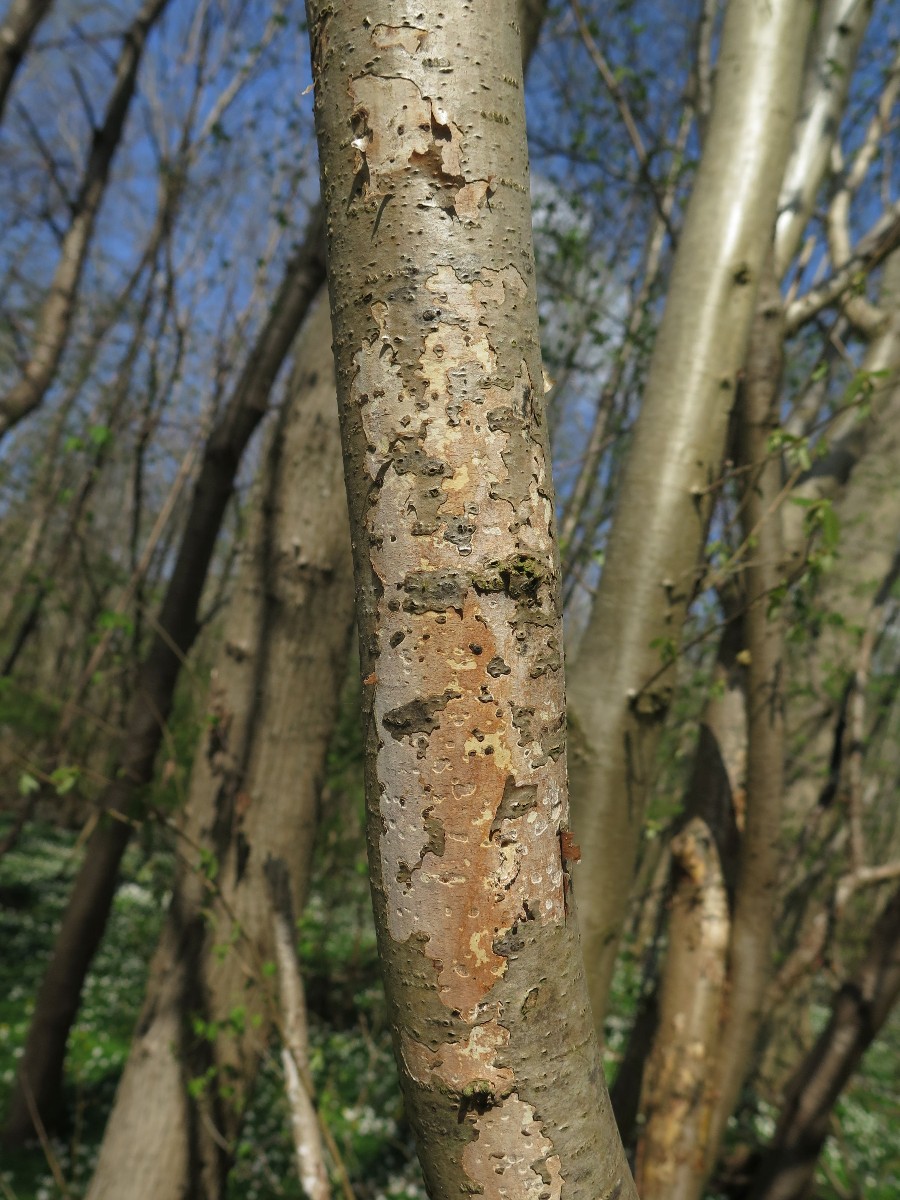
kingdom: Fungi
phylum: Basidiomycota
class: Agaricomycetes
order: Corticiales
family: Vuilleminiaceae
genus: Vuilleminia
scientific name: Vuilleminia coryli
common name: hassel-barksprænger
